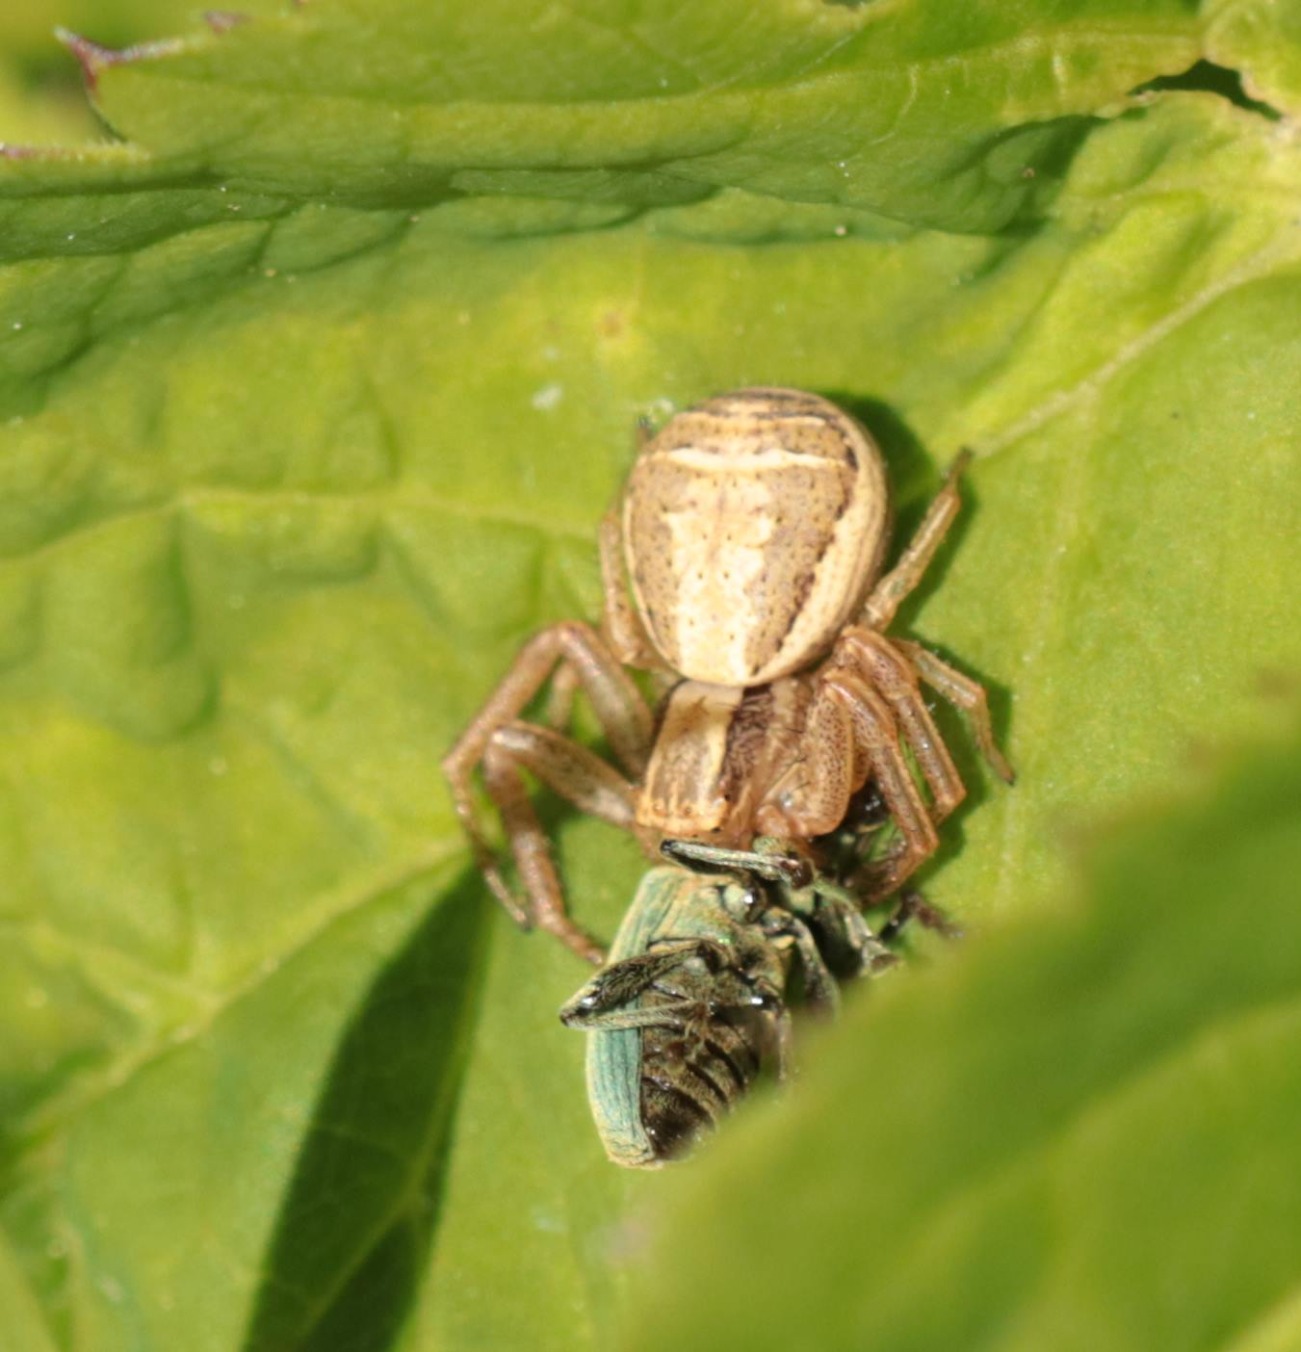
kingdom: Animalia
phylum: Arthropoda
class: Arachnida
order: Araneae
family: Thomisidae
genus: Xysticus
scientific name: Xysticus ulmi
